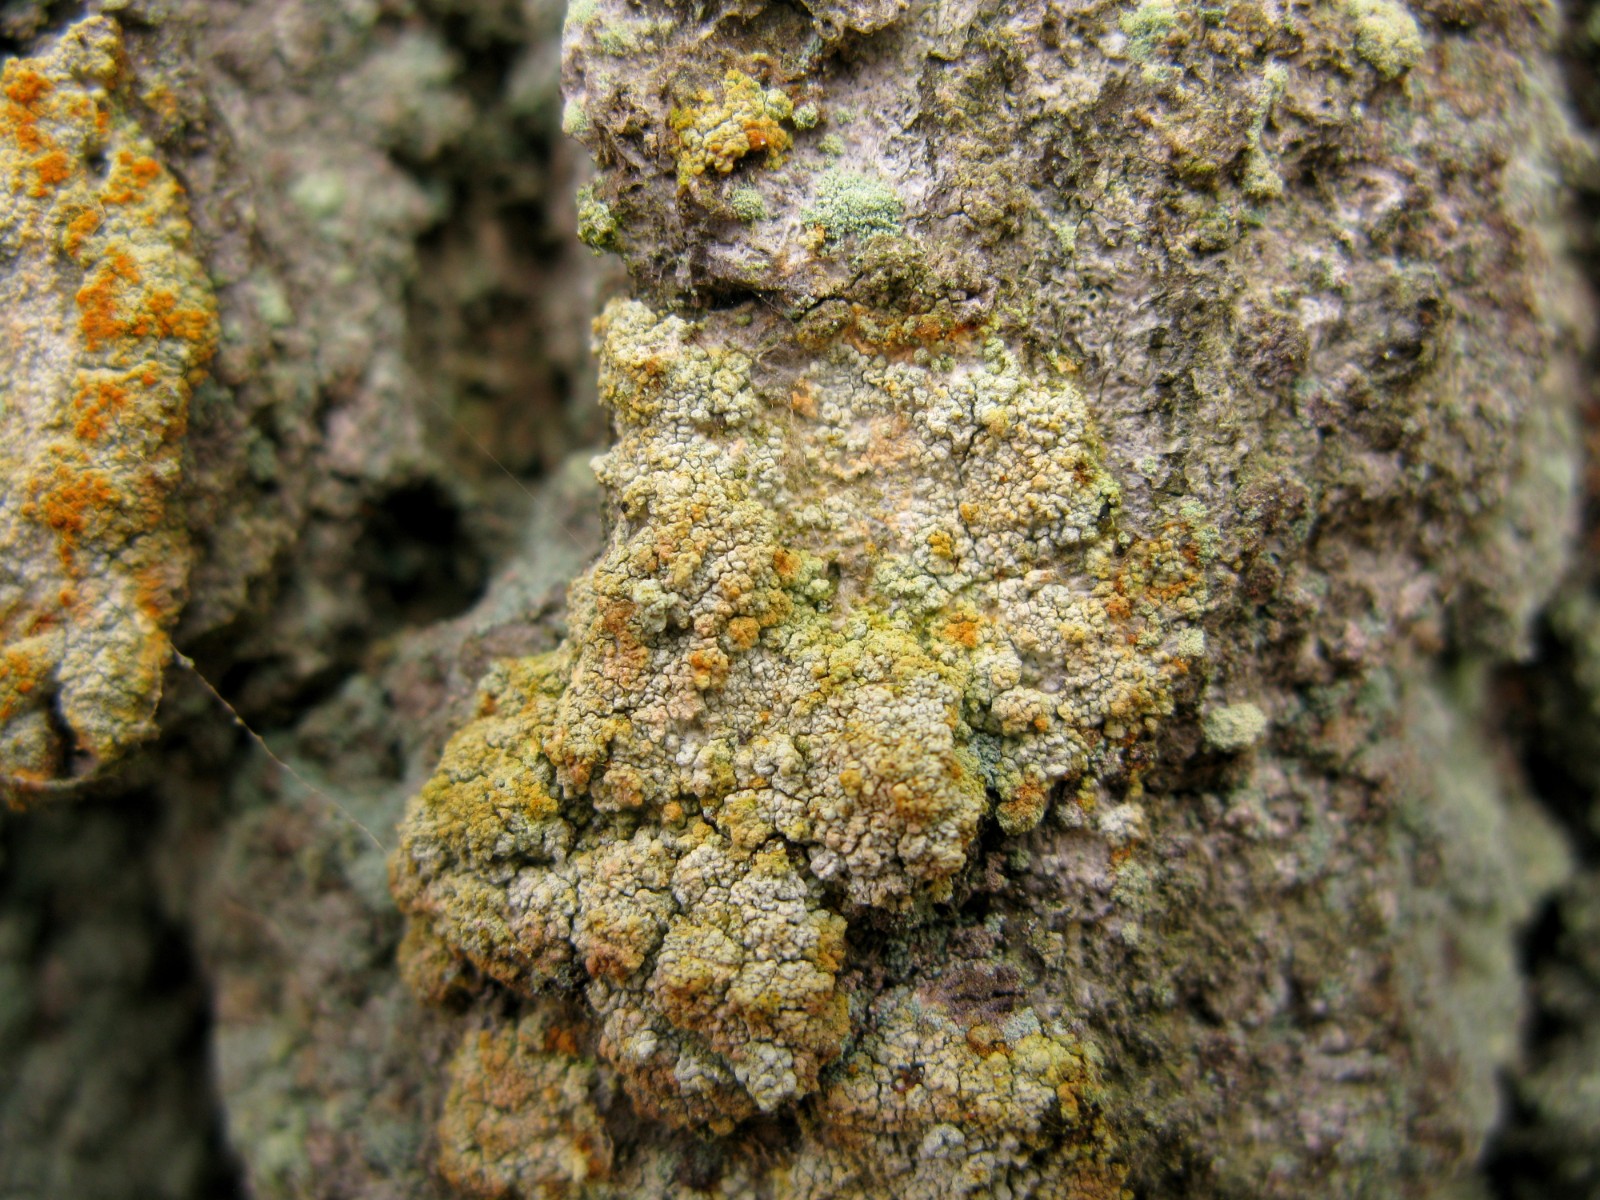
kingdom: Fungi
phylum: Ascomycota
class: Coniocybomycetes
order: Coniocybales
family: Coniocybaceae
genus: Chaenotheca
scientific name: Chaenotheca ferruginea
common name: rustbrun knappenålslav
